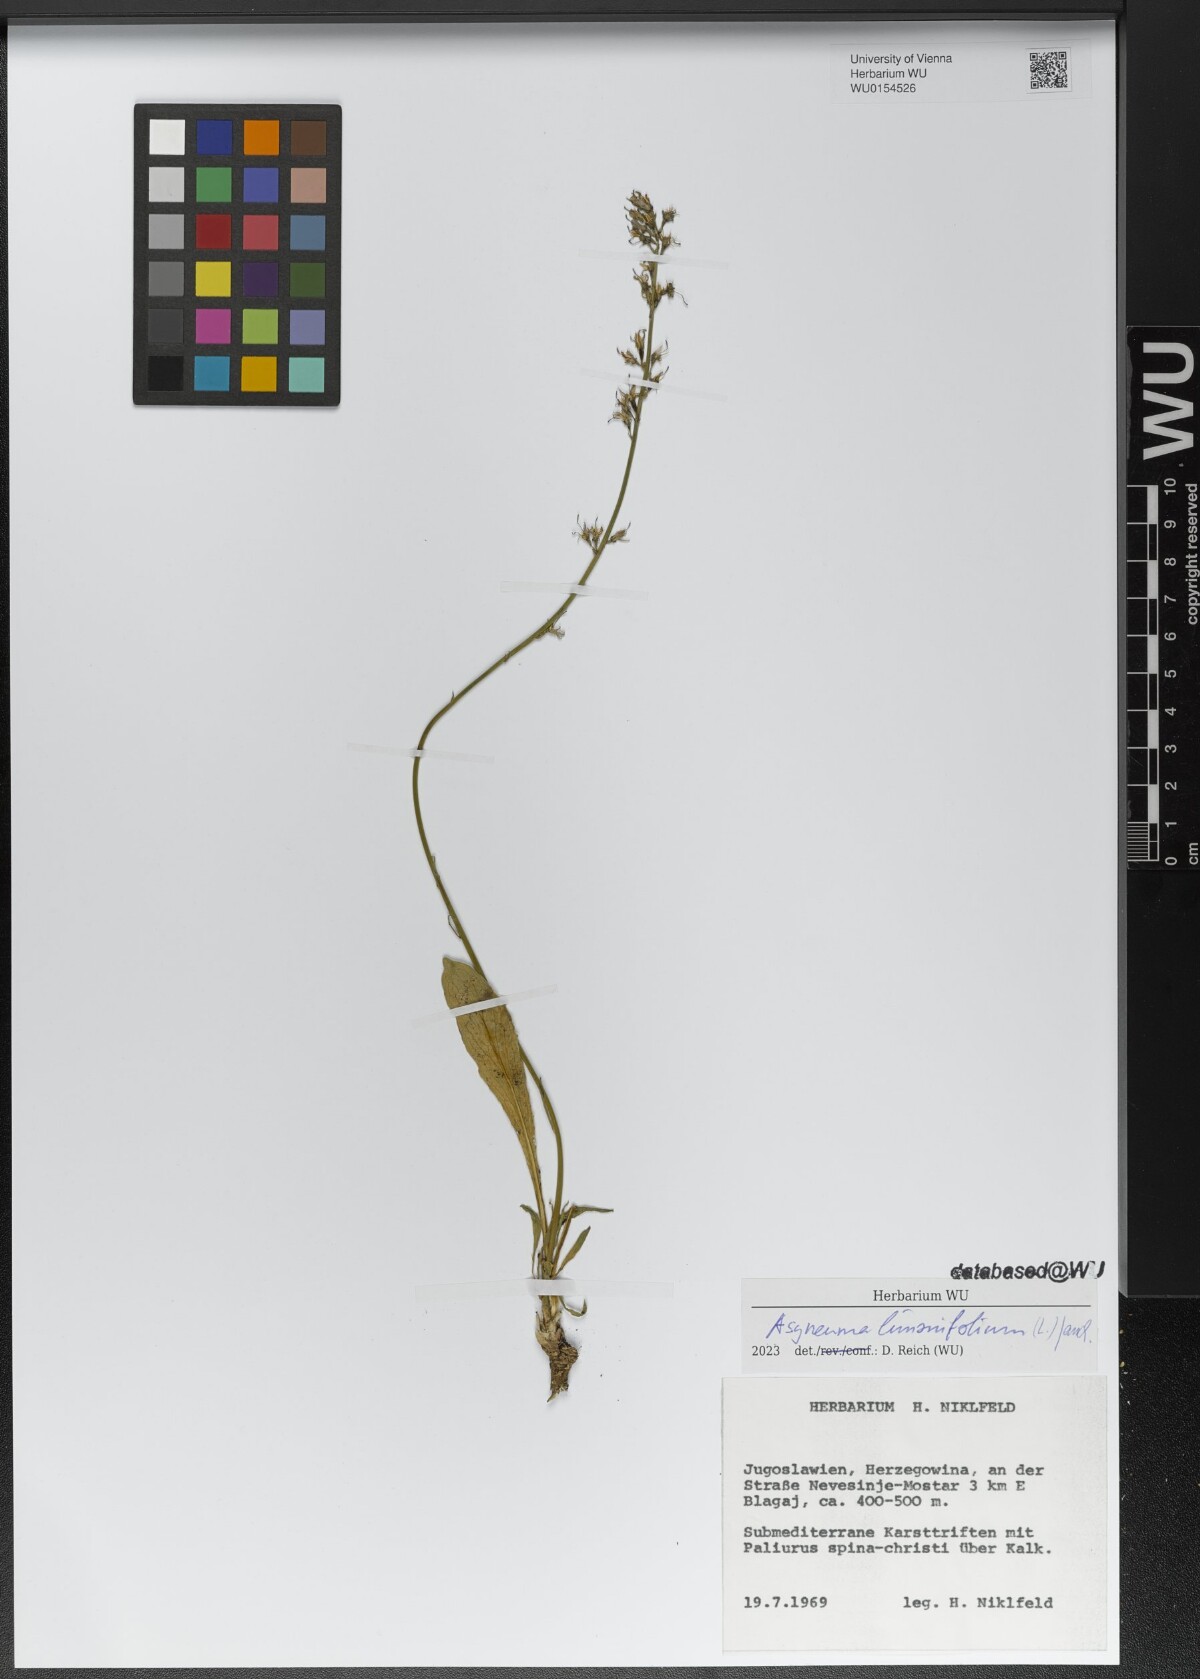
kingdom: Plantae
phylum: Tracheophyta
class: Magnoliopsida
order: Asterales
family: Campanulaceae
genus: Asyneuma
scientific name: Asyneuma limonifolium
